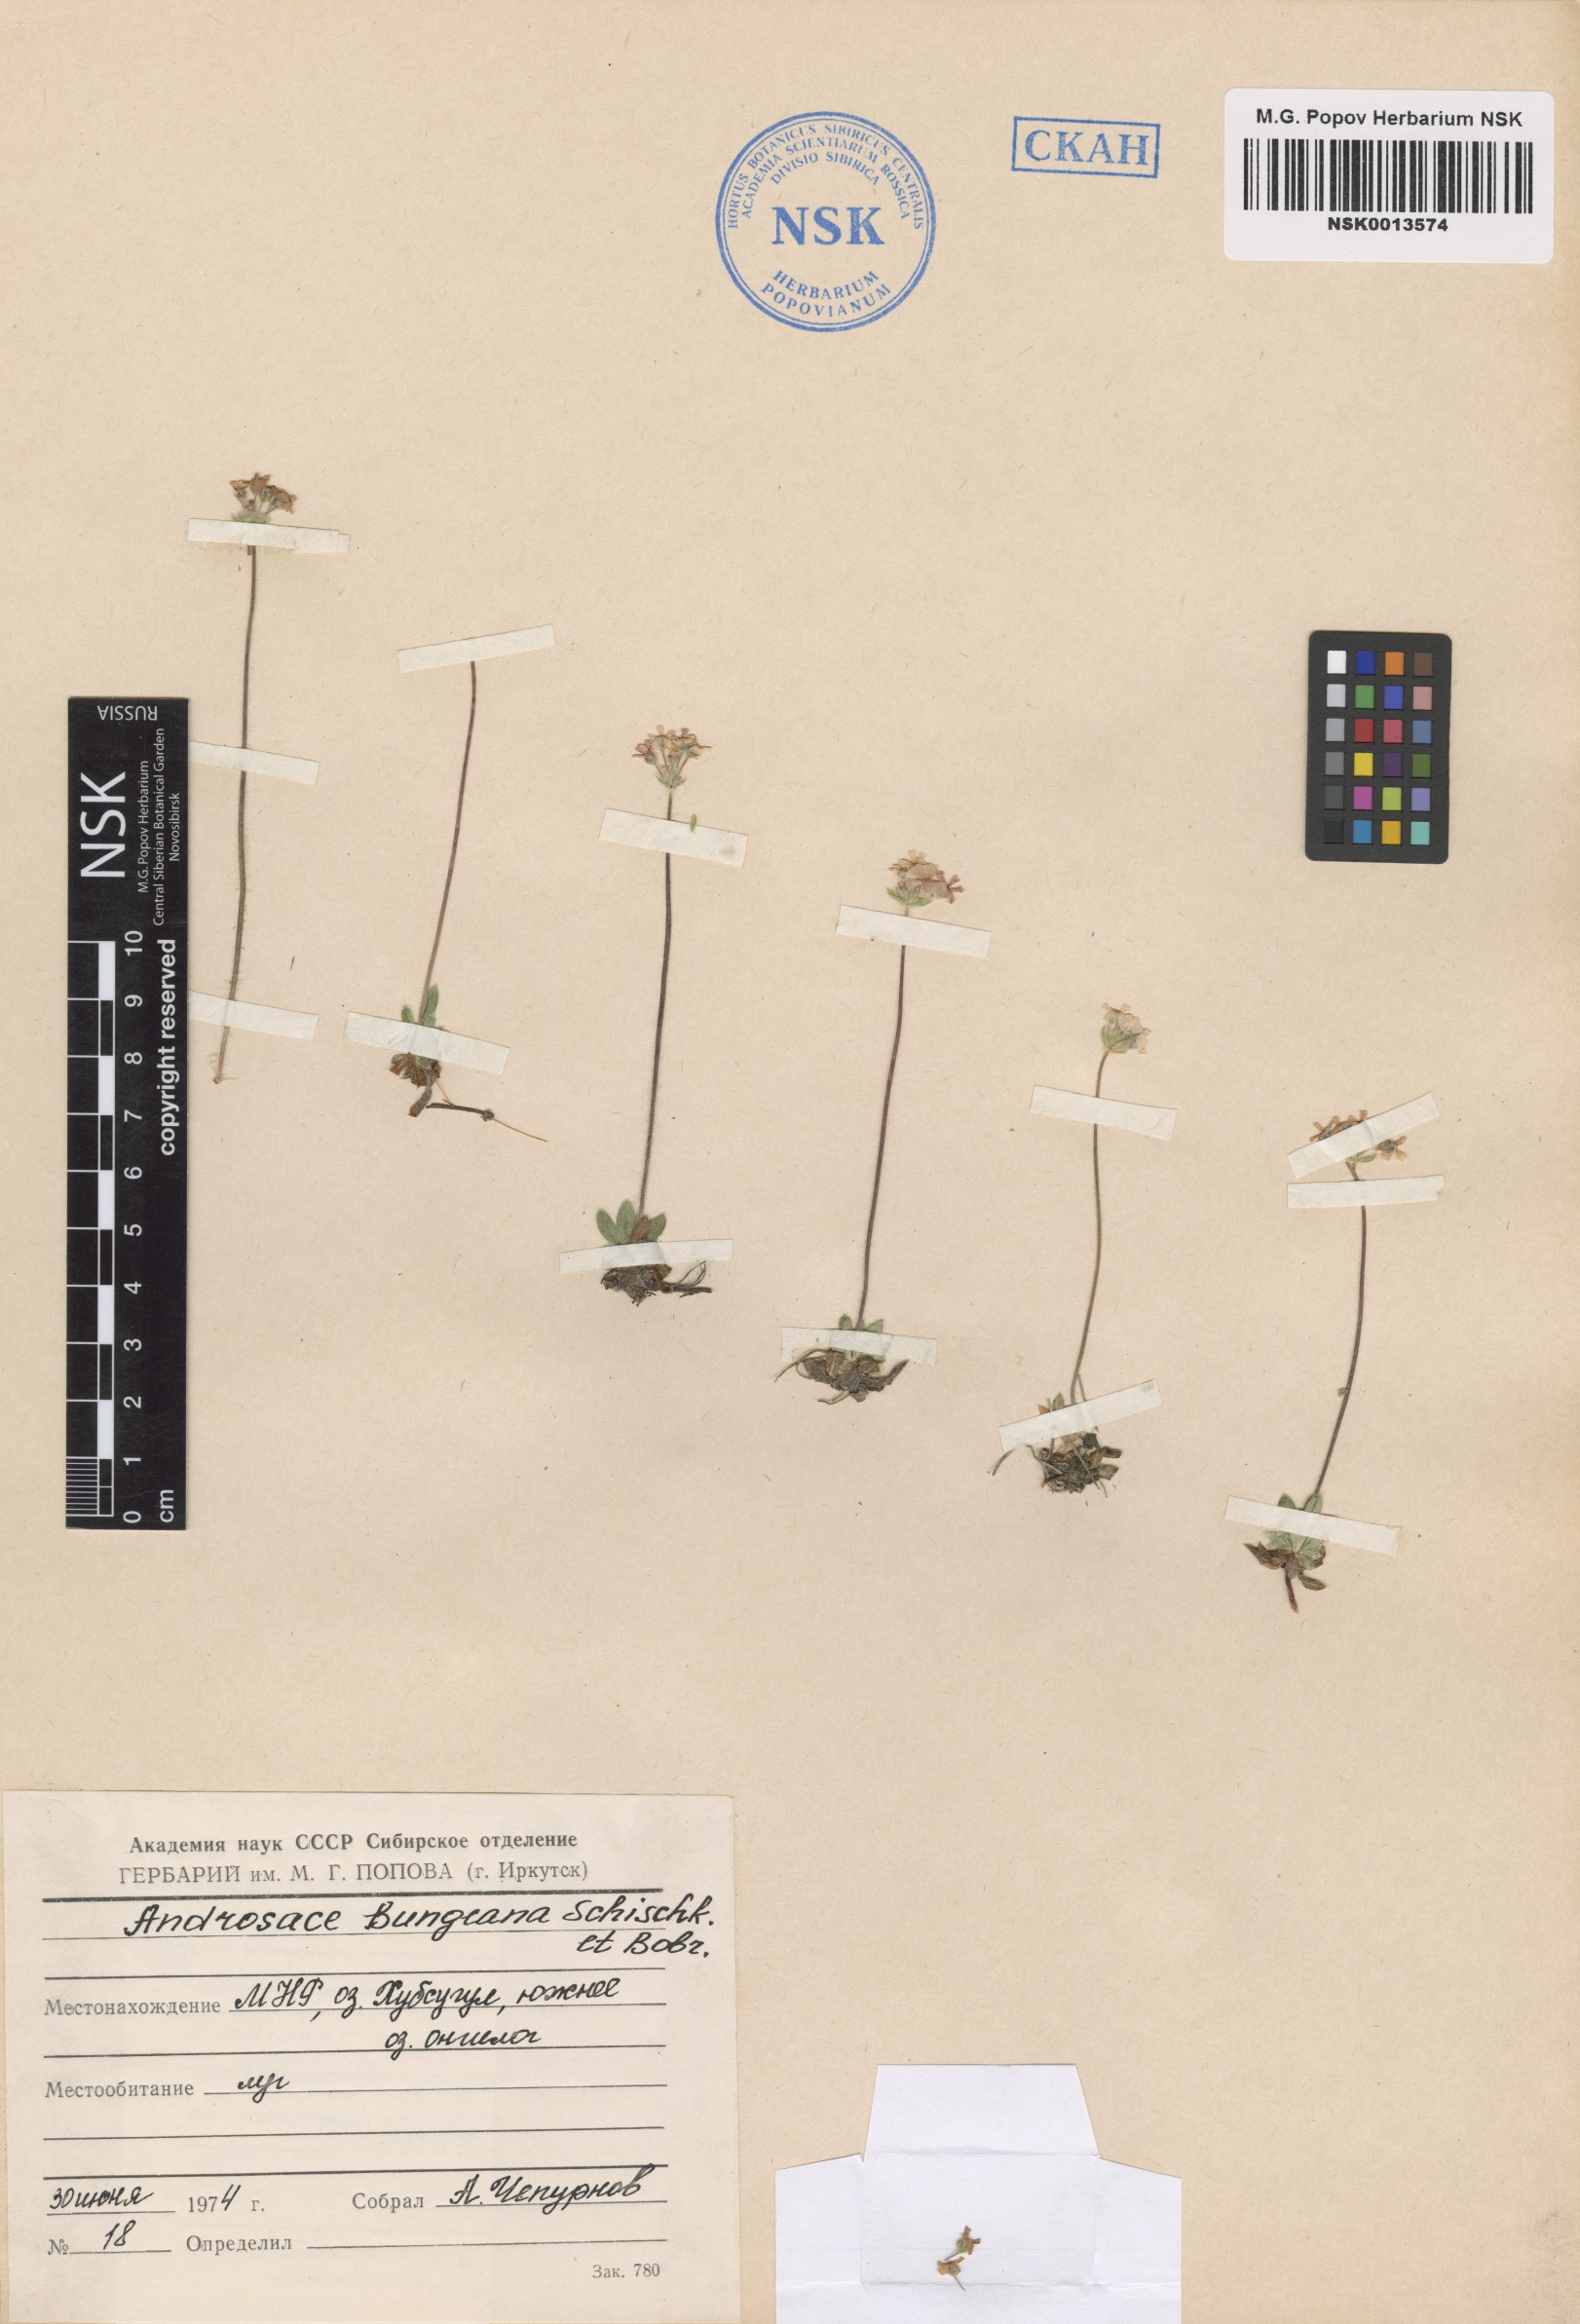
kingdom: Plantae
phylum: Tracheophyta
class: Magnoliopsida
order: Ericales
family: Primulaceae
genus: Androsace
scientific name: Androsace bungeana
